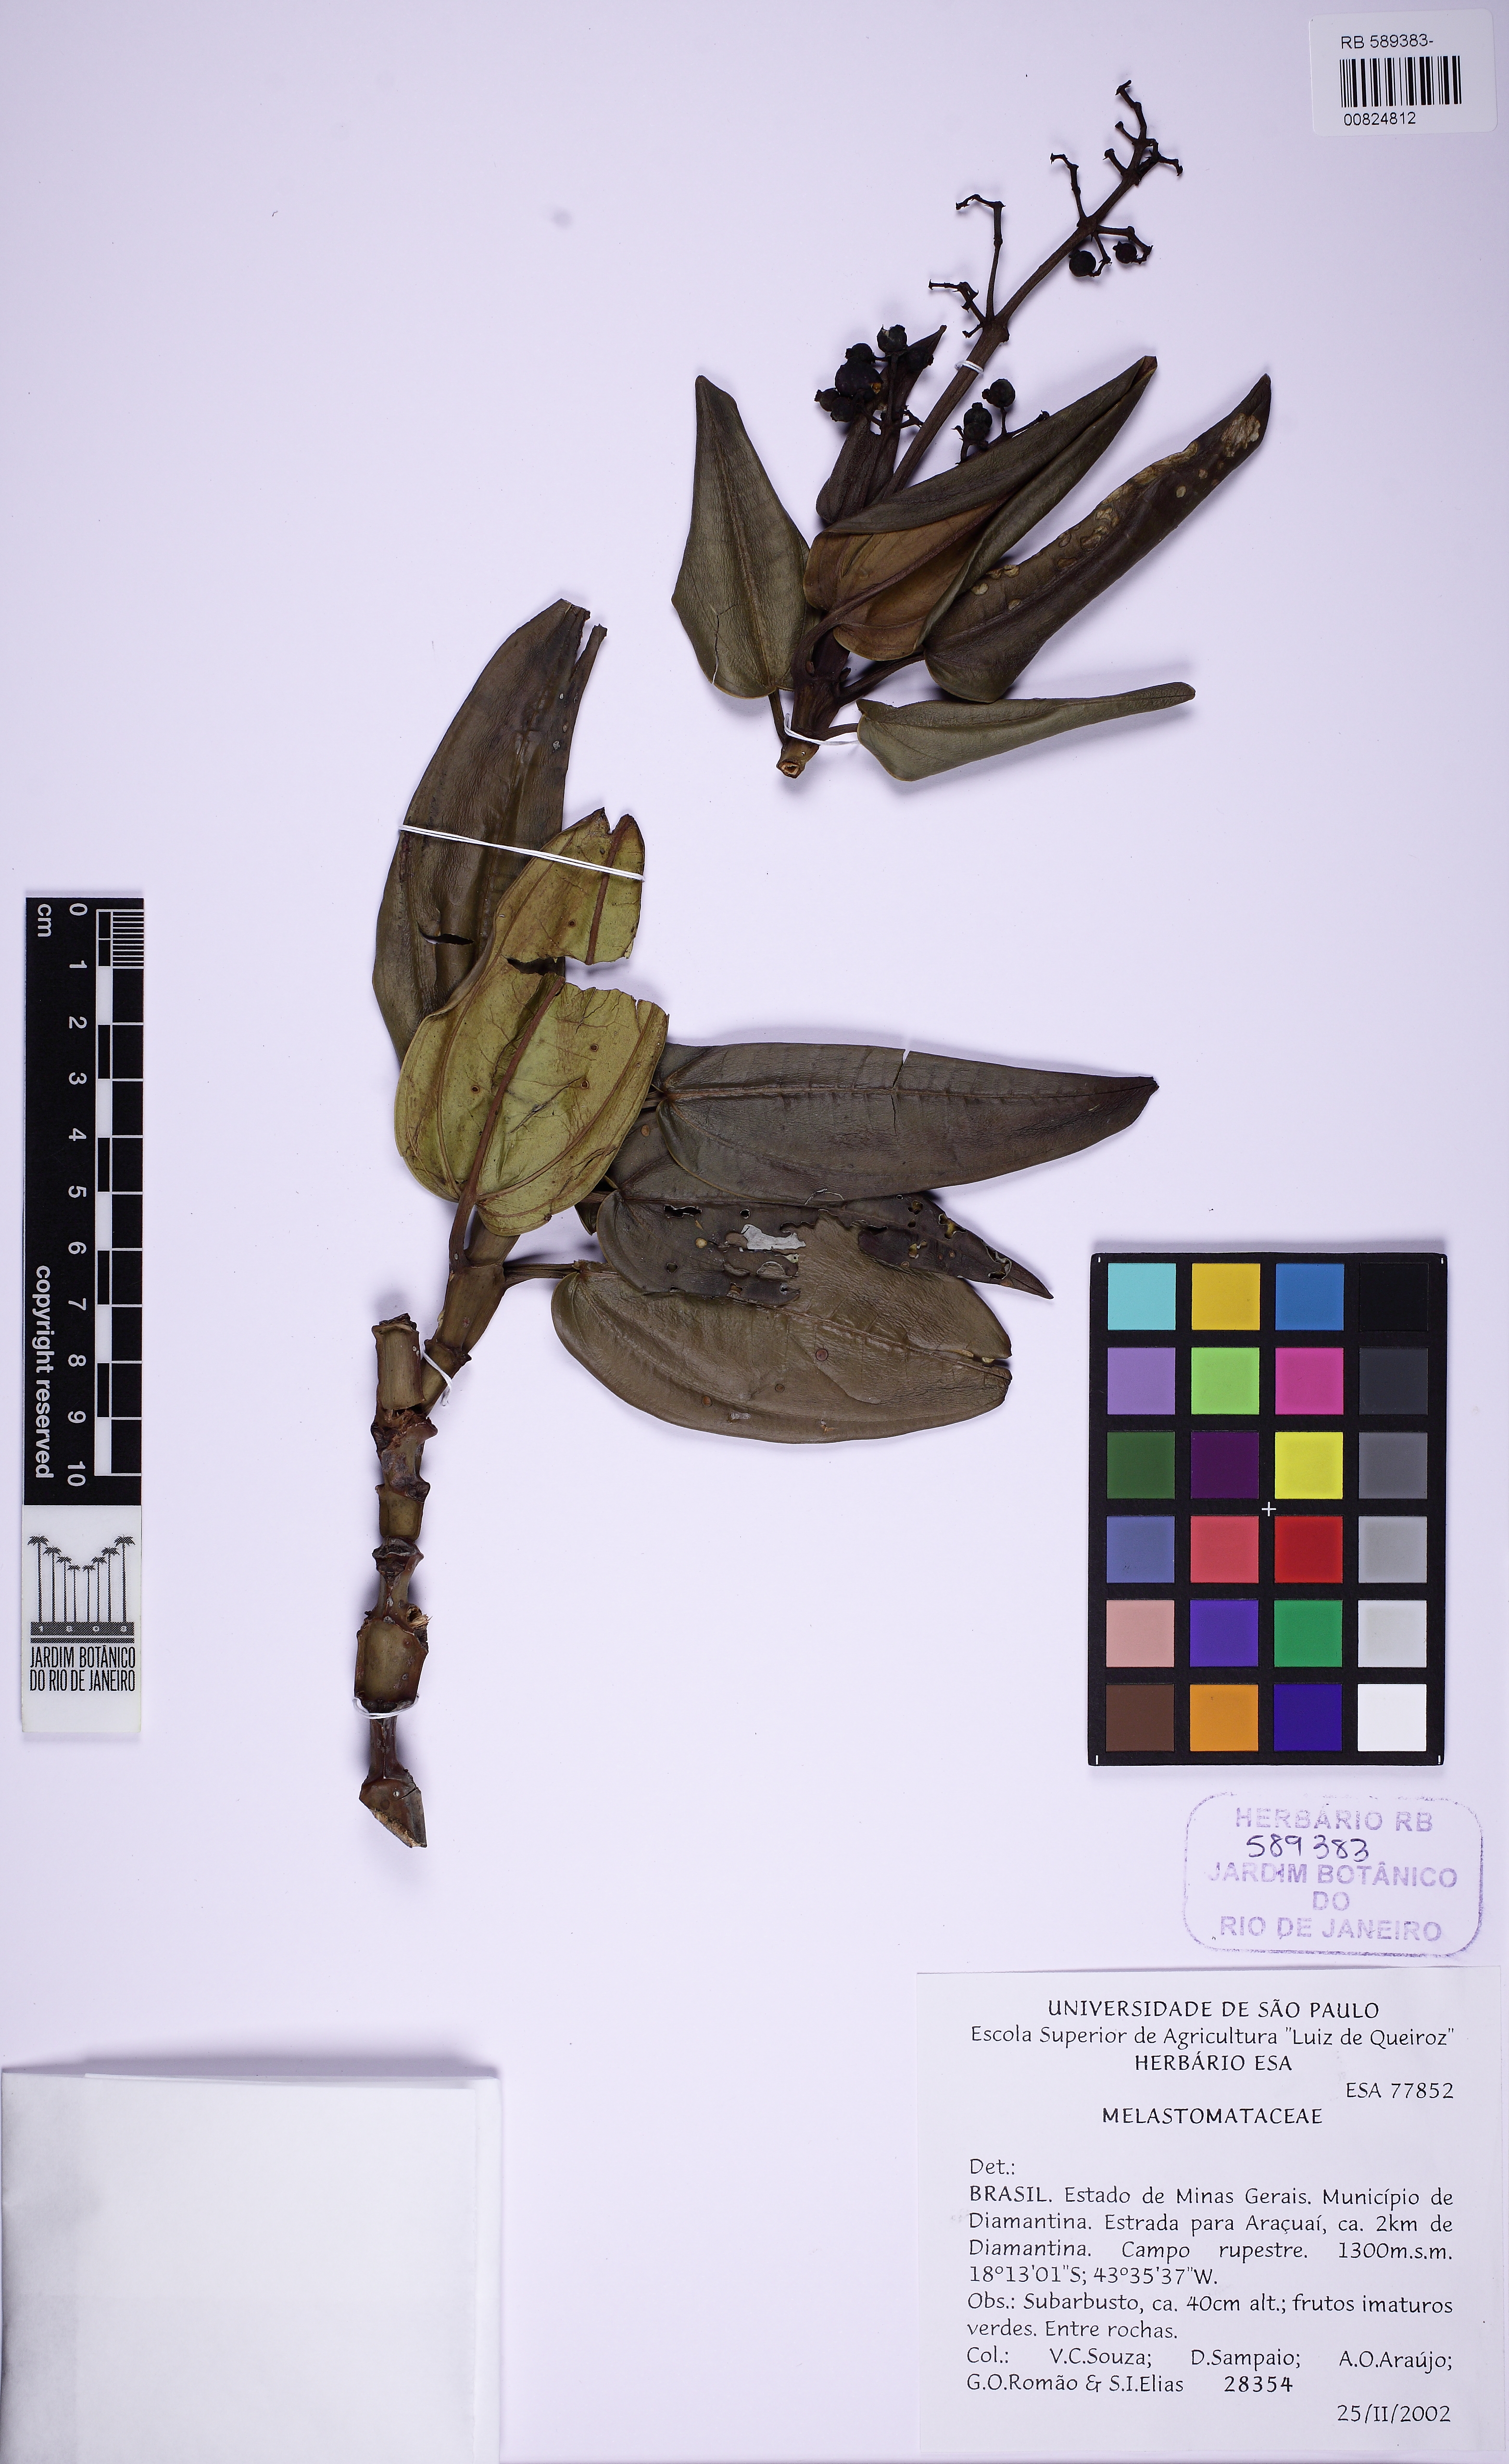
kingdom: Plantae
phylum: Tracheophyta
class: Magnoliopsida
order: Myrtales
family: Melastomataceae
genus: Miconia
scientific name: Miconia paradoxa
